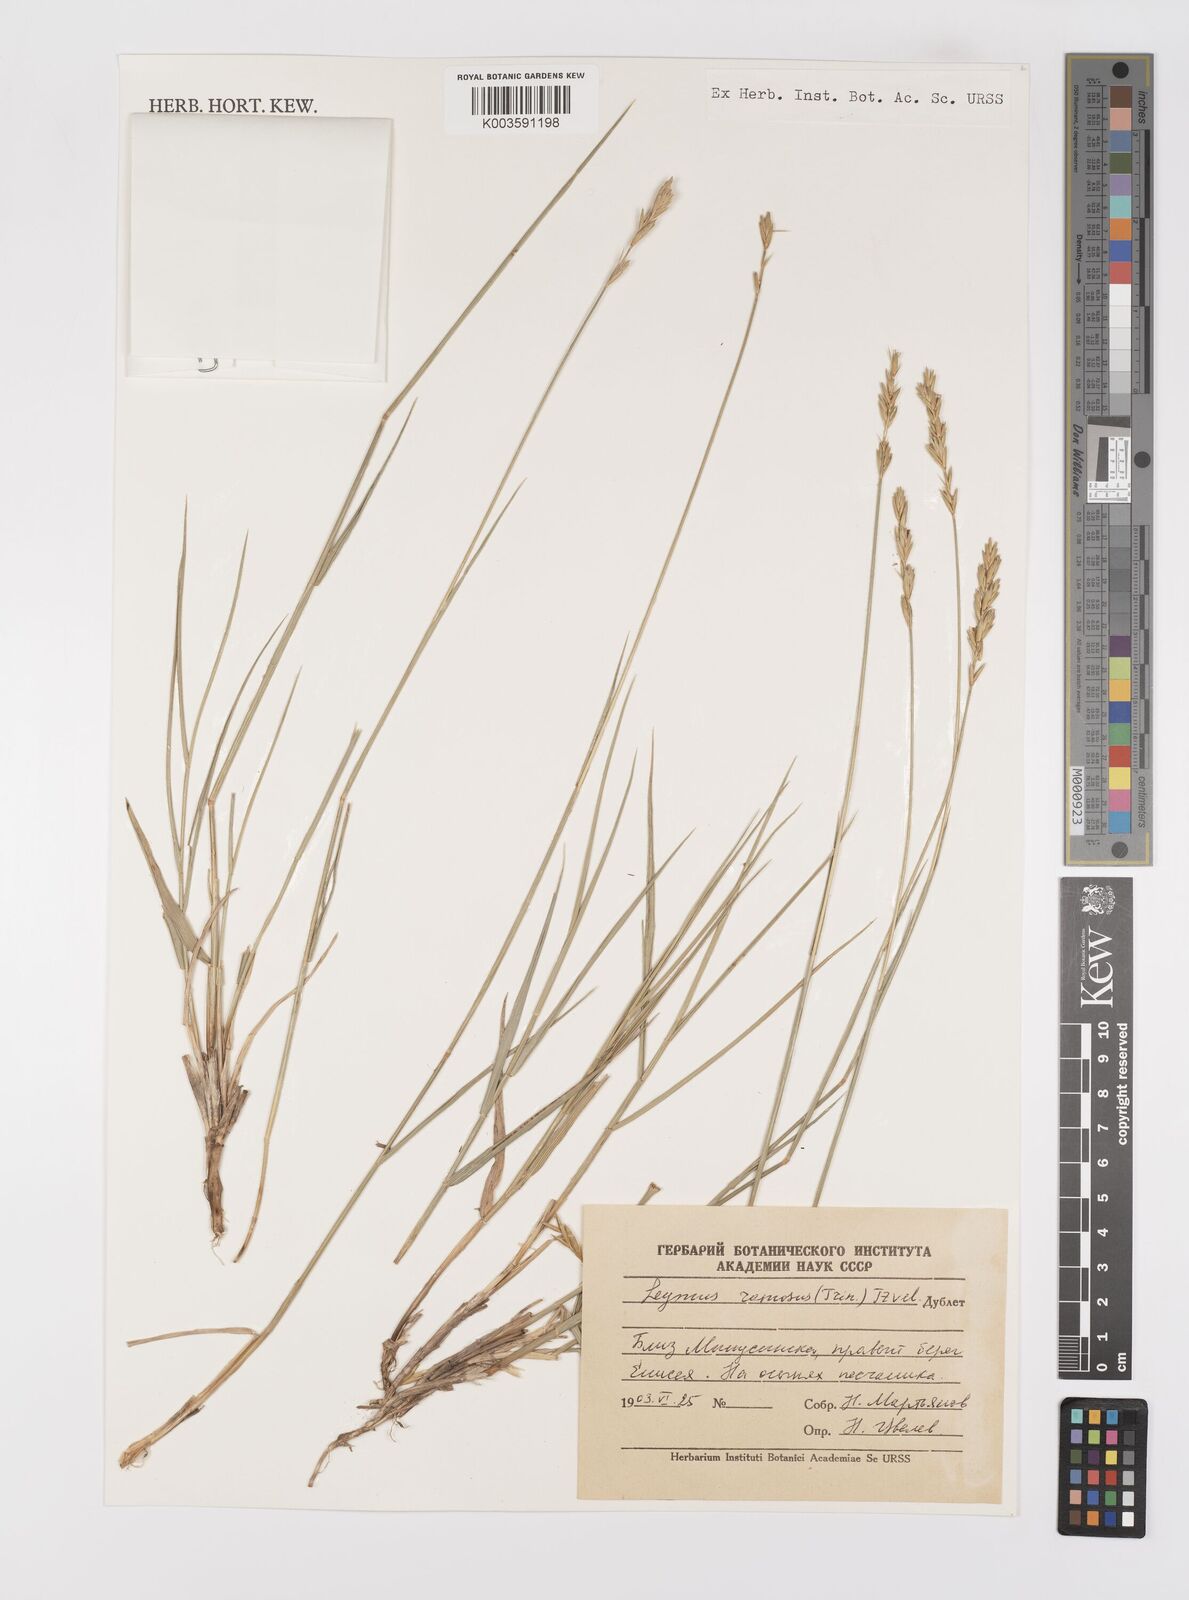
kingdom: Plantae
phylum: Tracheophyta
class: Liliopsida
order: Poales
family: Poaceae
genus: Leymus
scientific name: Leymus ramosus
